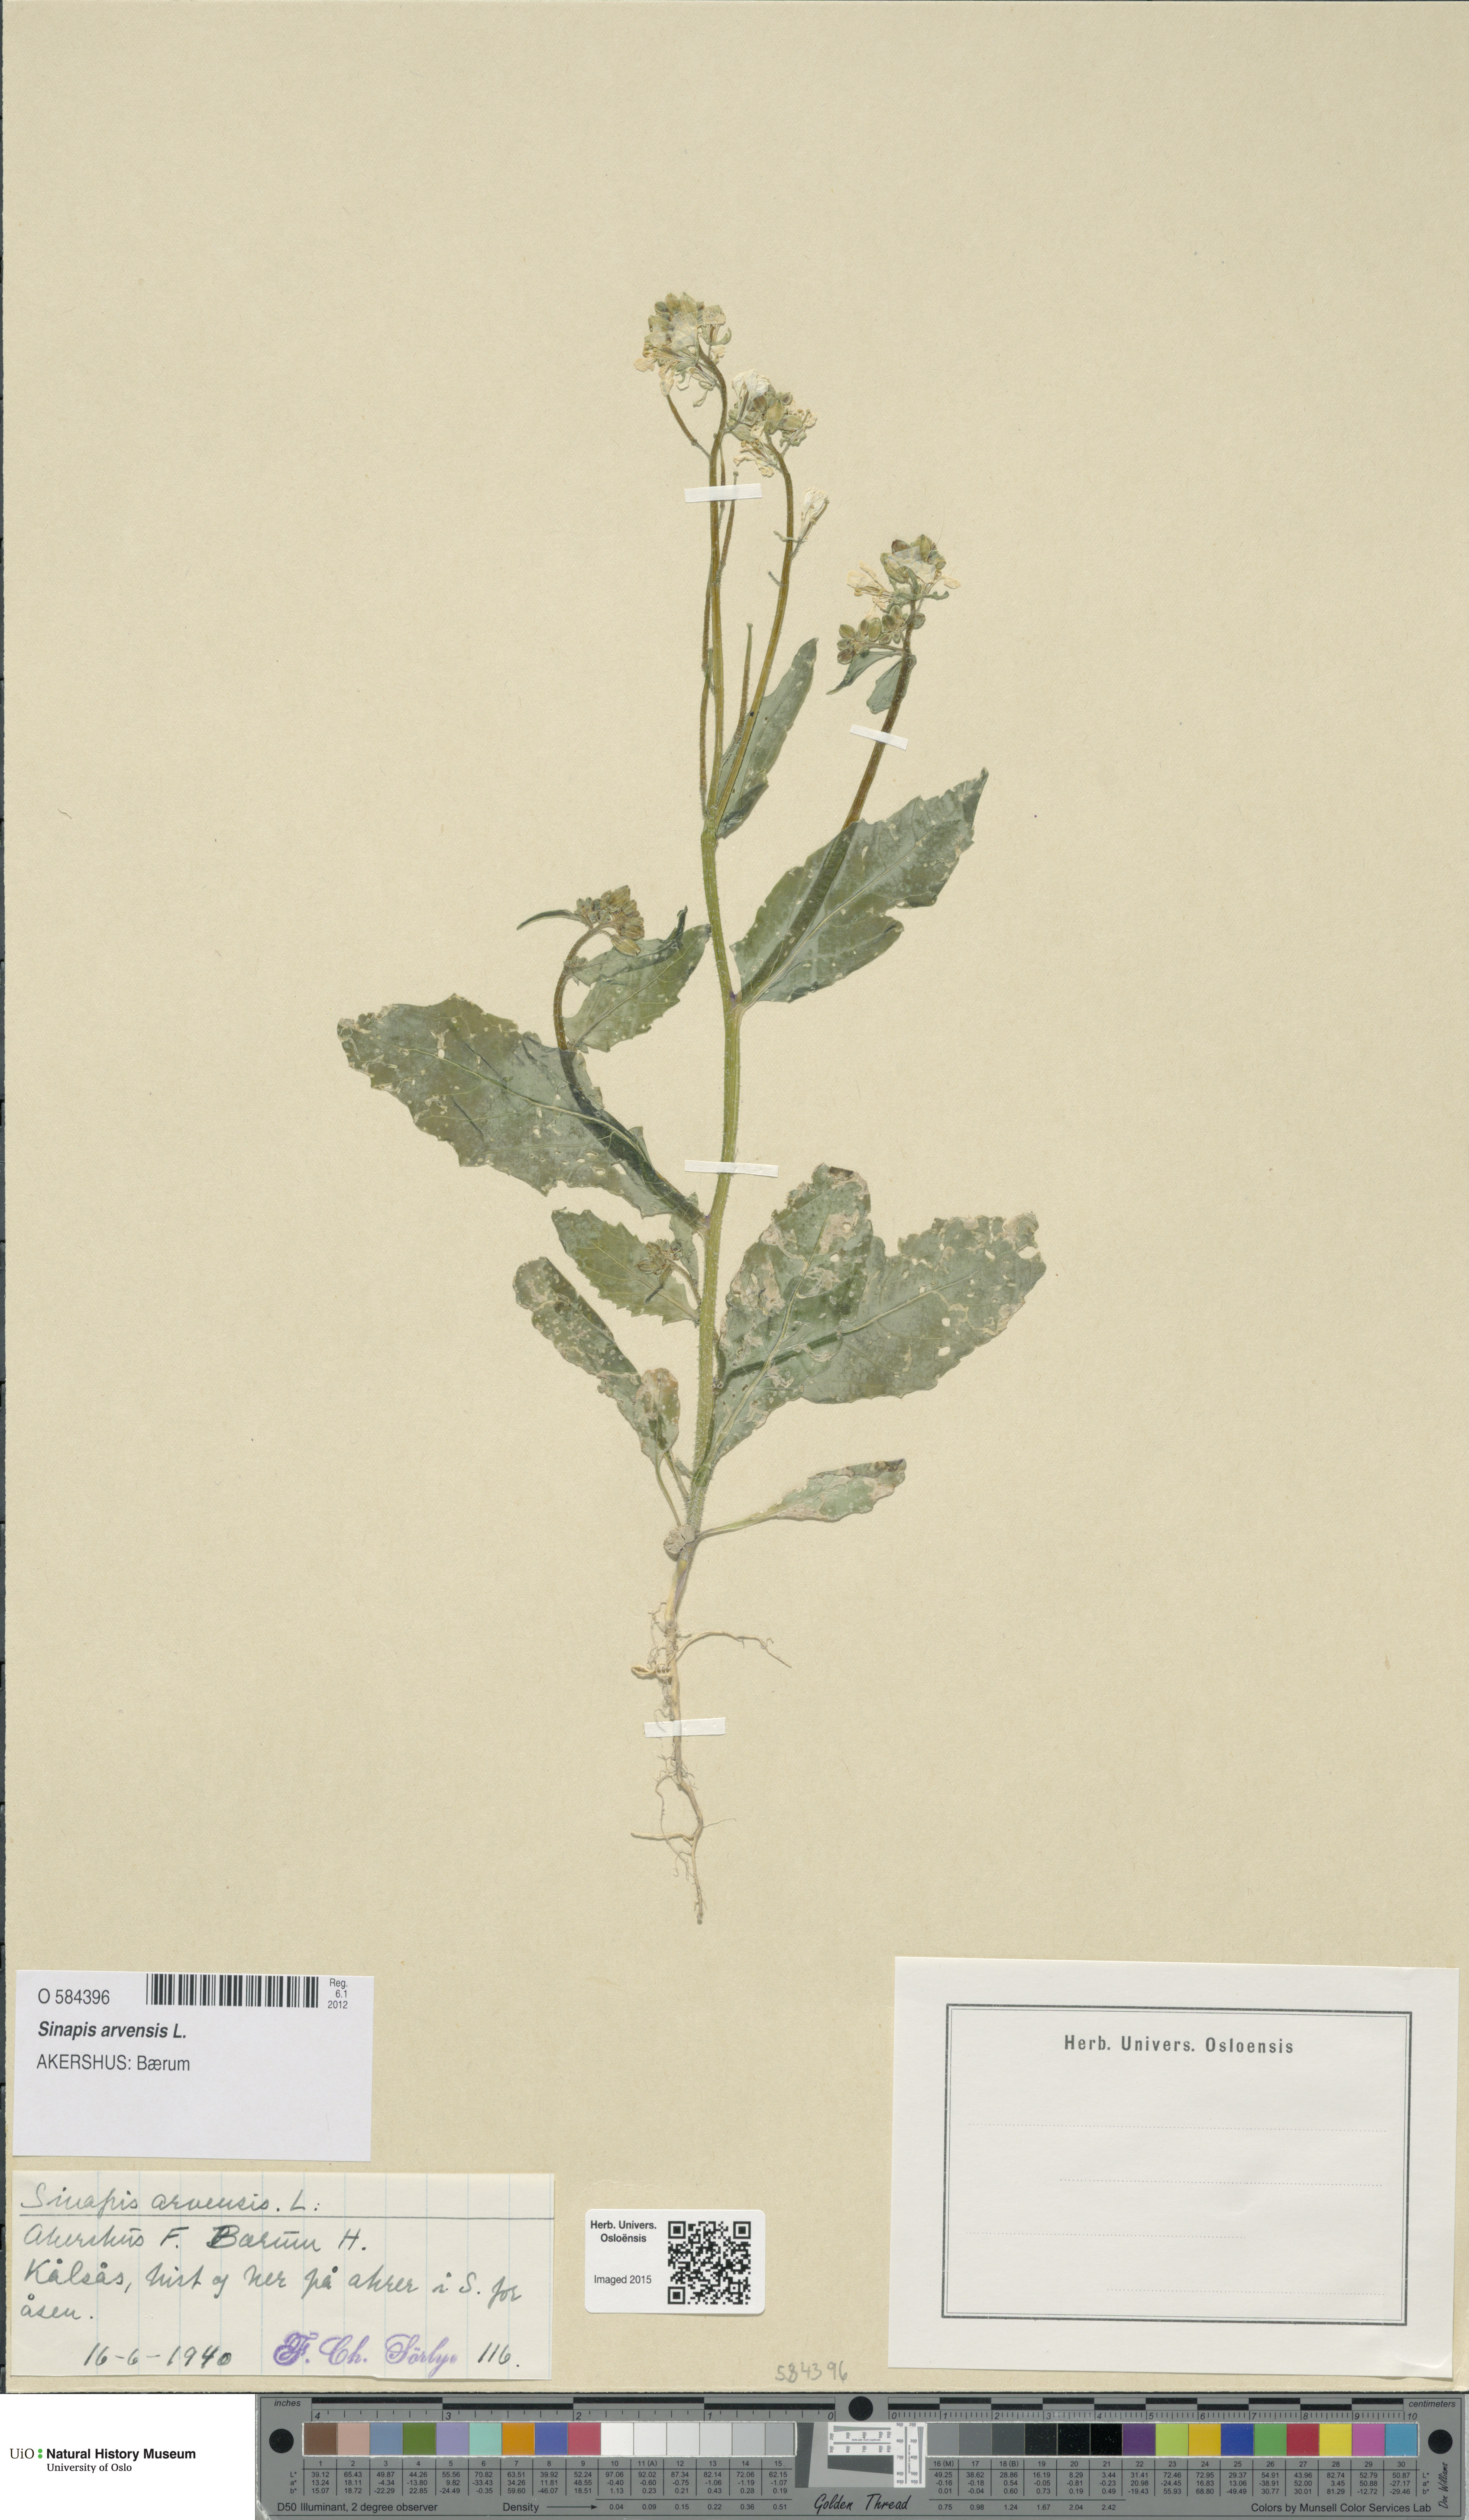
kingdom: Plantae
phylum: Tracheophyta
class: Magnoliopsida
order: Brassicales
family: Brassicaceae
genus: Sinapis
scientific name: Sinapis arvensis
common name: Charlock
